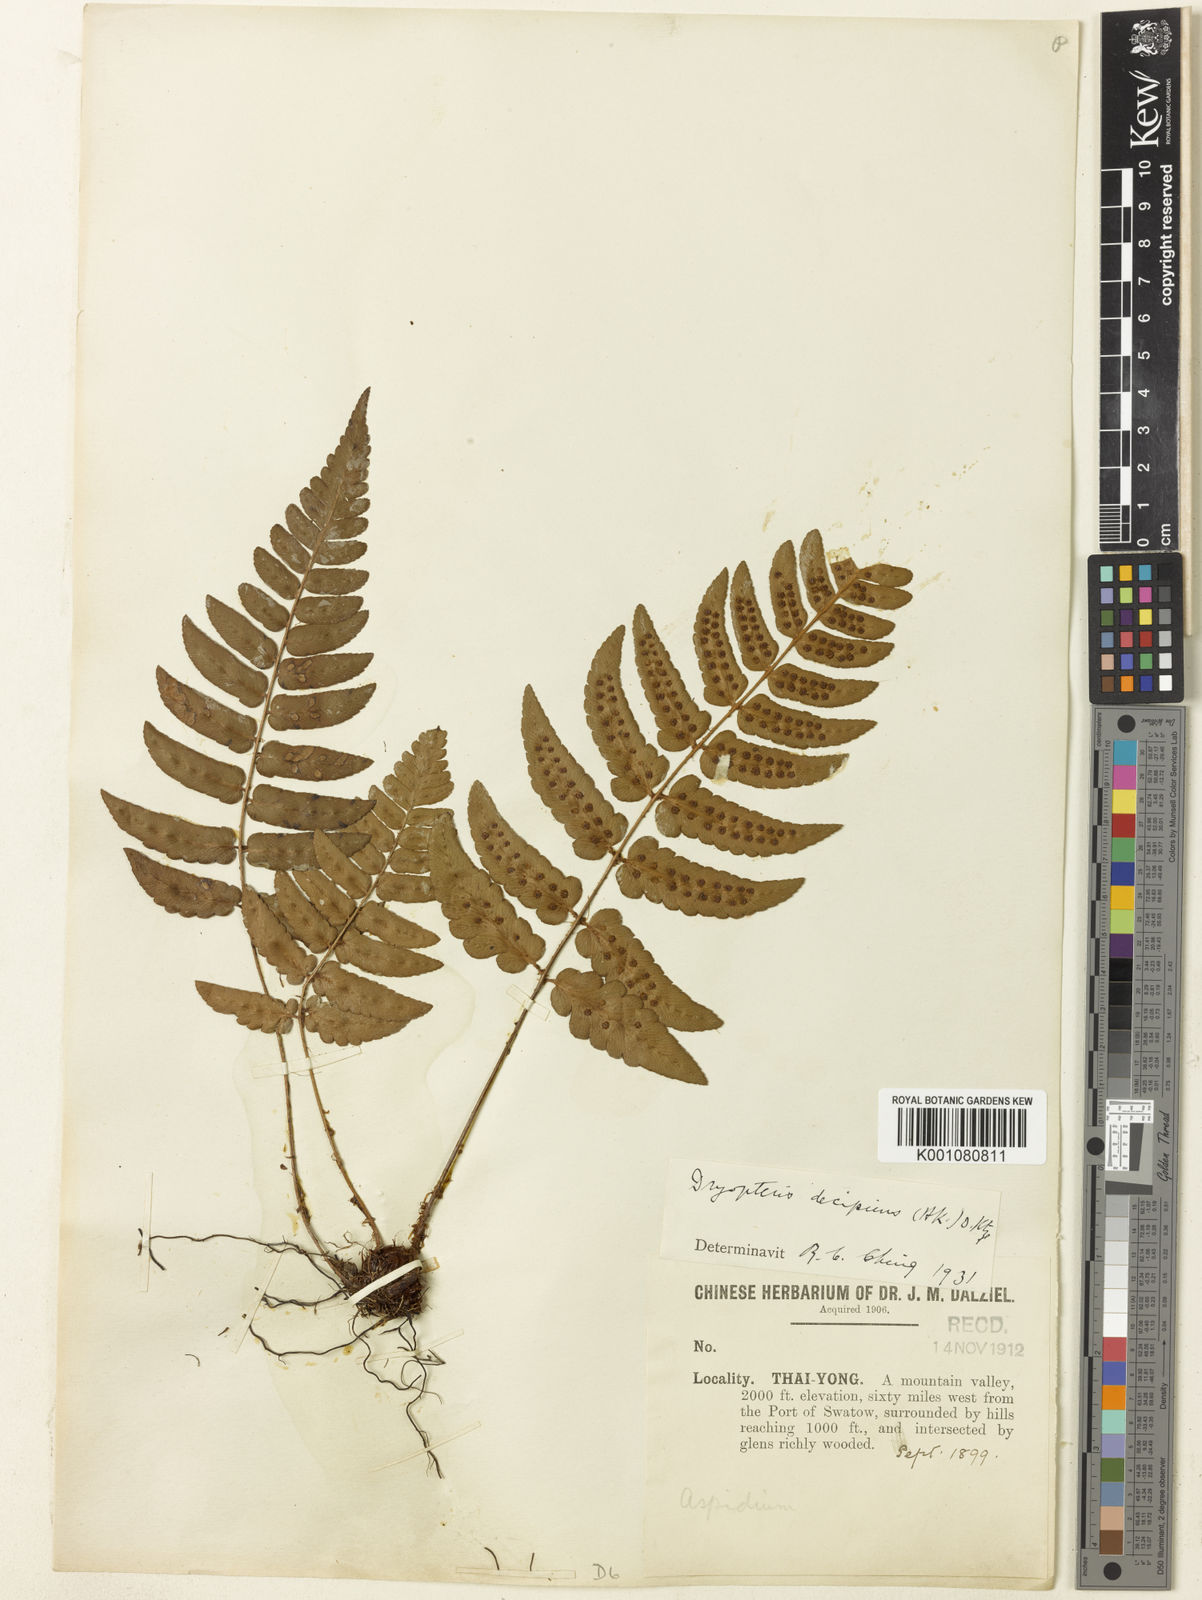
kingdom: Plantae
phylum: Tracheophyta
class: Polypodiopsida
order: Polypodiales
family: Dryopteridaceae
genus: Dryopteris
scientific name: Dryopteris decipiens
